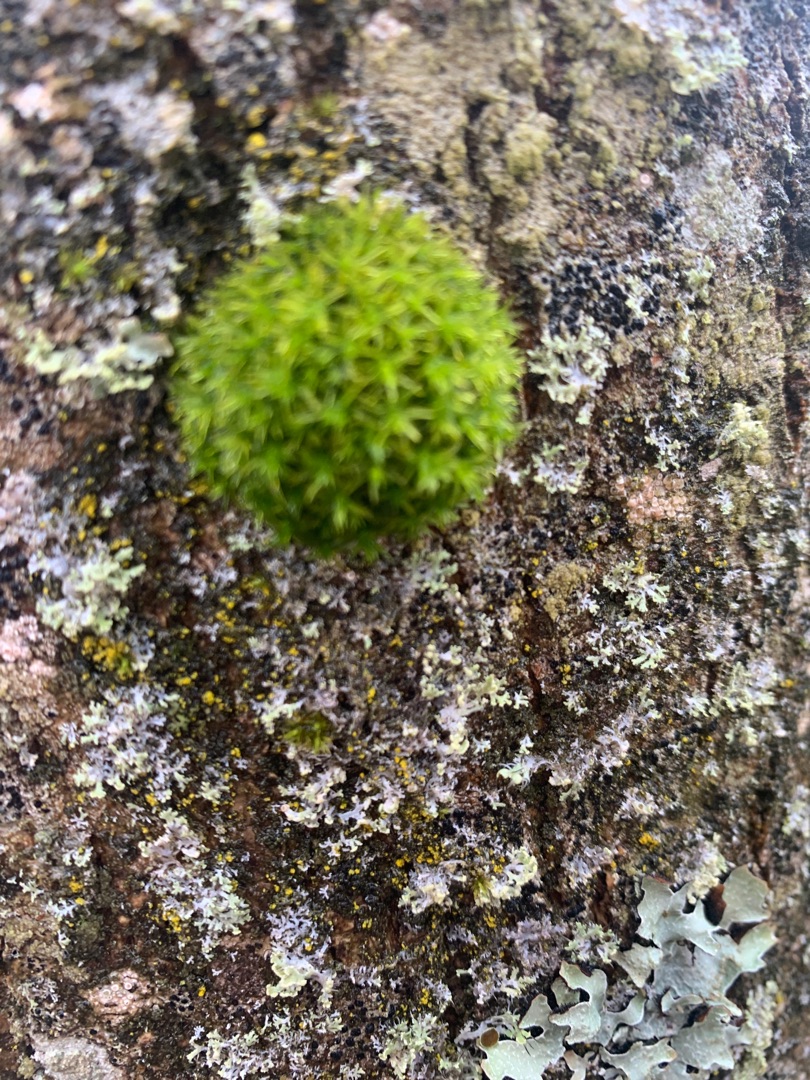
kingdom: Plantae
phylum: Bryophyta
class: Bryopsida
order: Orthotrichales
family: Orthotrichaceae
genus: Orthotrichum
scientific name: Orthotrichum
